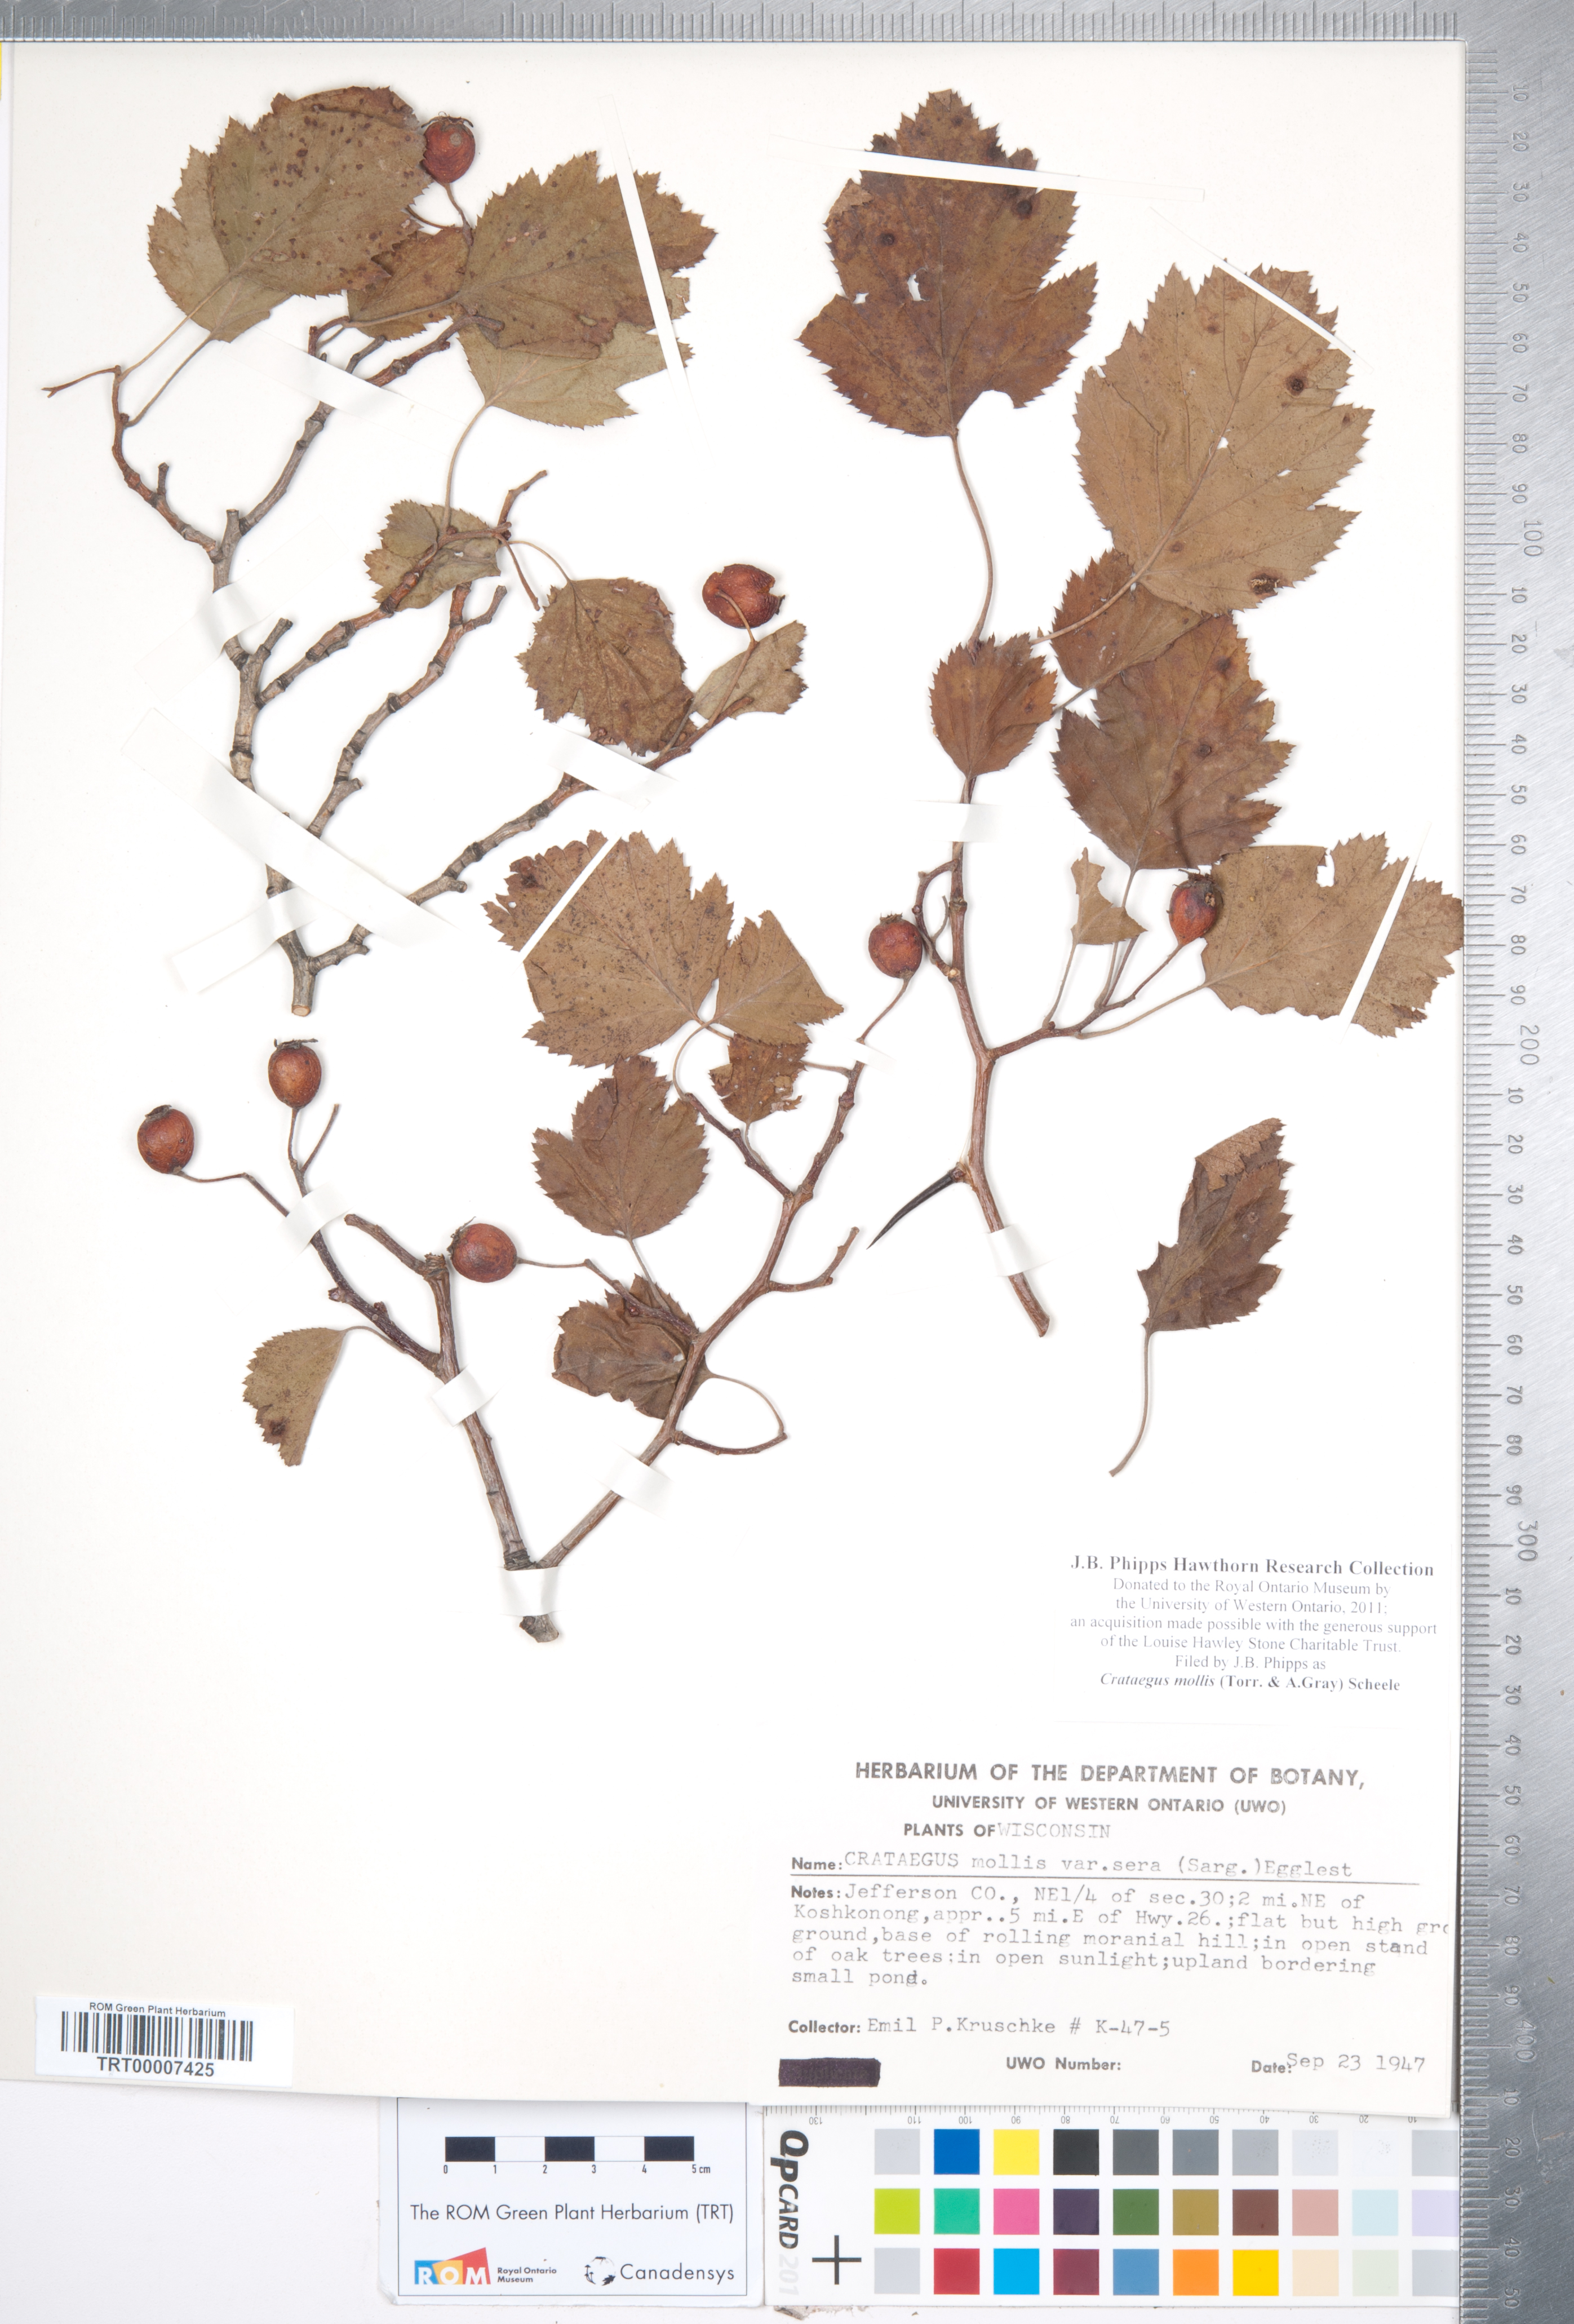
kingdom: Plantae
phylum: Tracheophyta
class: Magnoliopsida
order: Rosales
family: Rosaceae
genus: Crataegus
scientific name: Crataegus mollis
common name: Downy hawthorn
